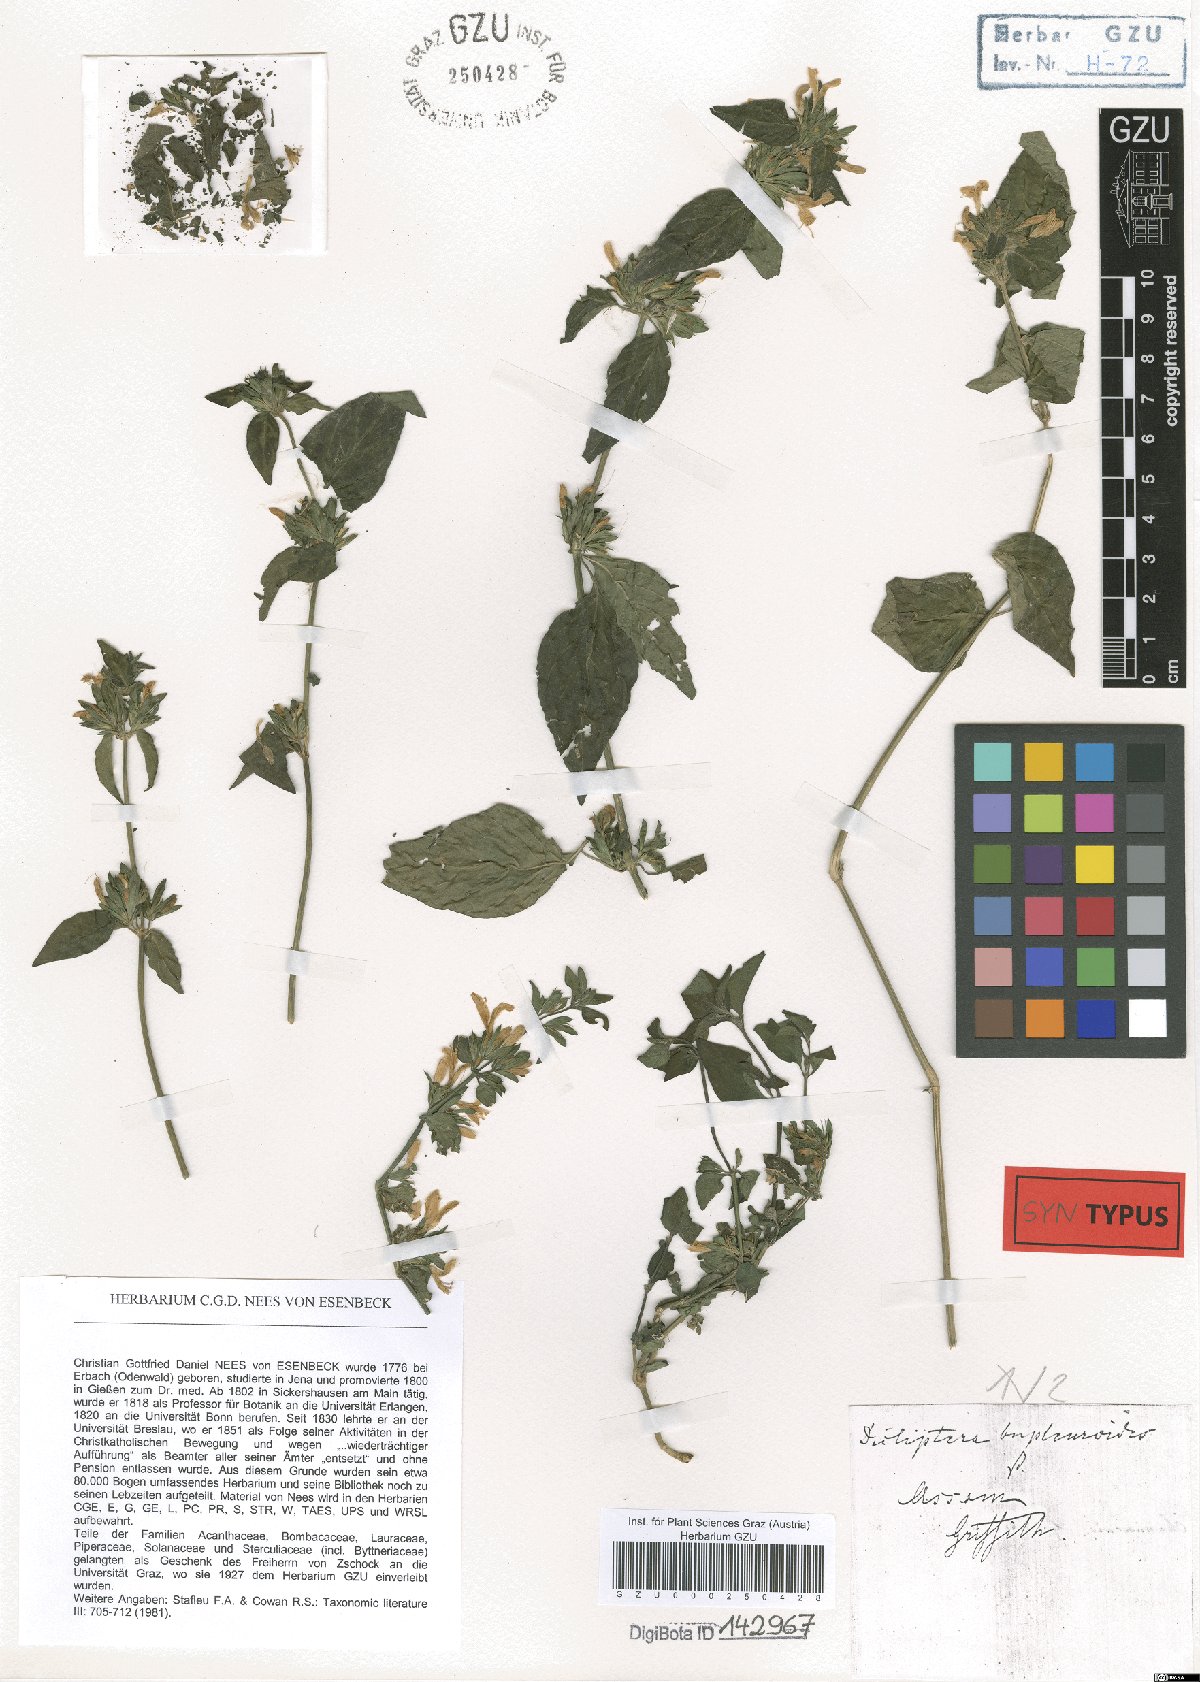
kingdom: Plantae
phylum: Tracheophyta
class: Magnoliopsida
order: Lamiales
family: Acanthaceae
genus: Dicliptera
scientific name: Dicliptera bupleuroides
